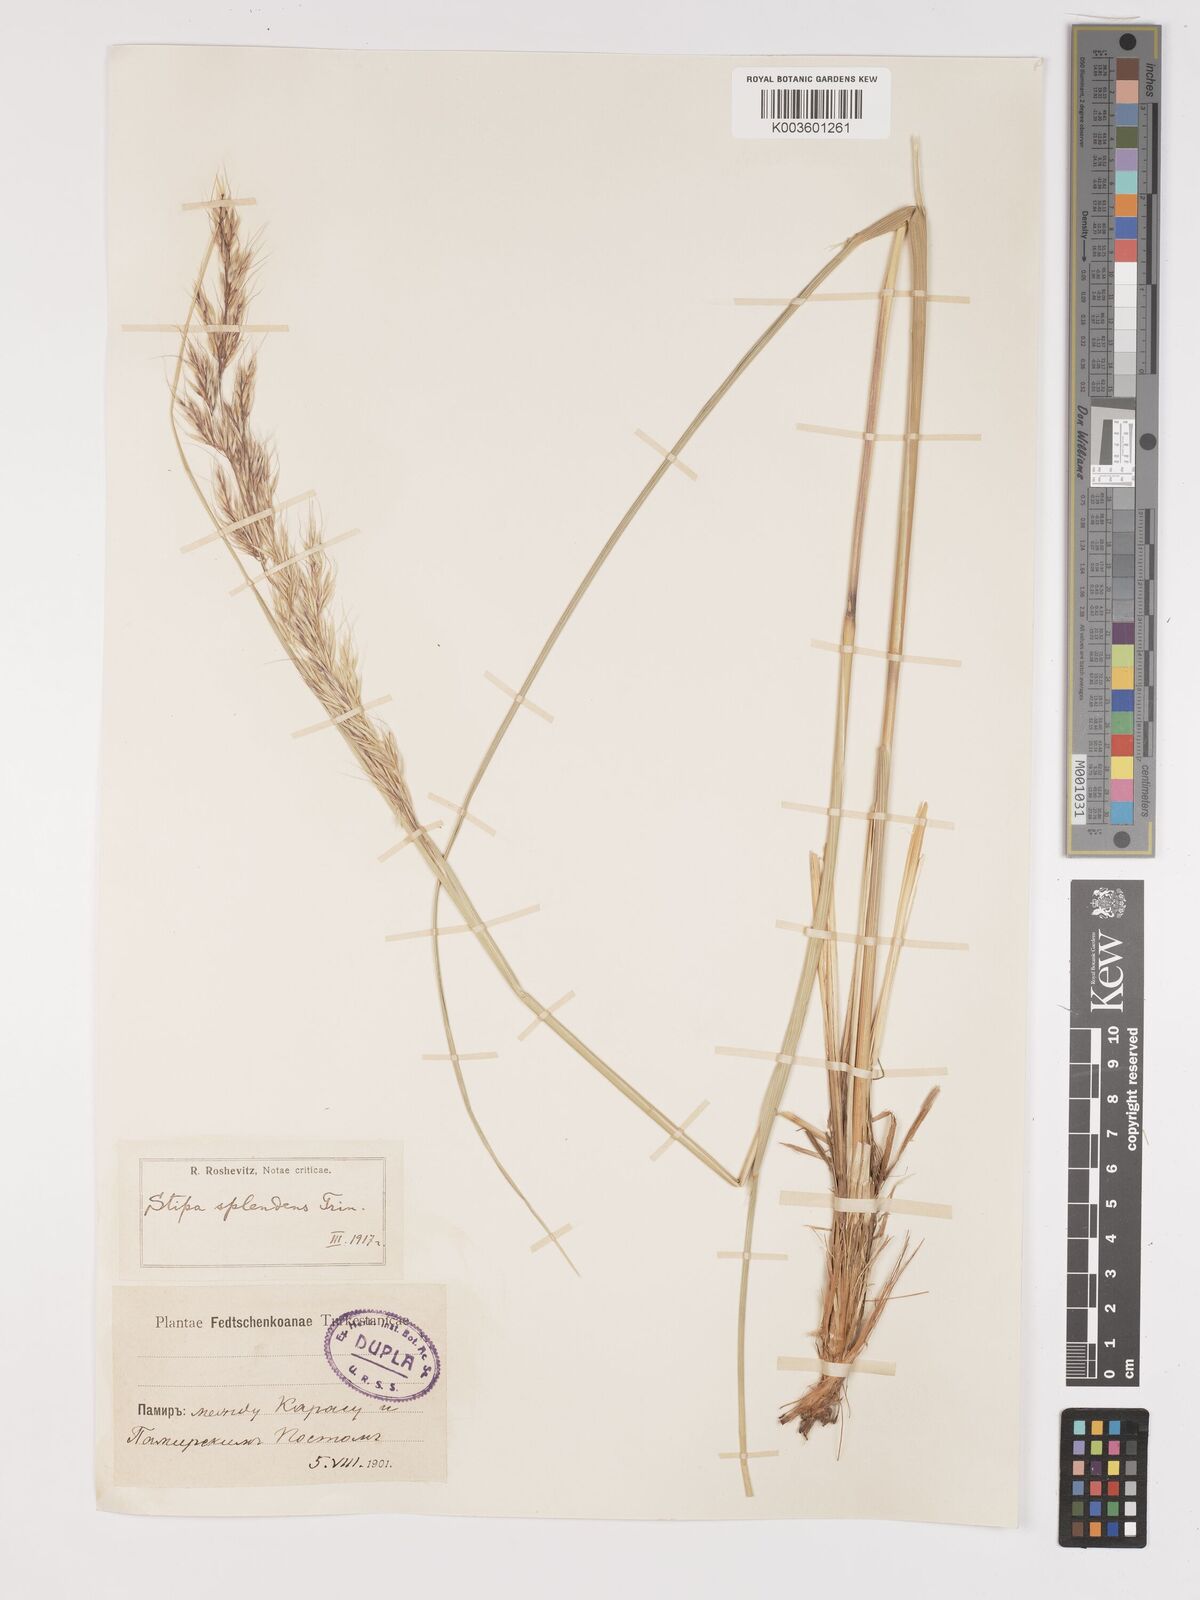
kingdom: Plantae
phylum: Tracheophyta
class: Liliopsida
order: Poales
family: Poaceae
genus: Neotrinia
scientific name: Neotrinia splendens
